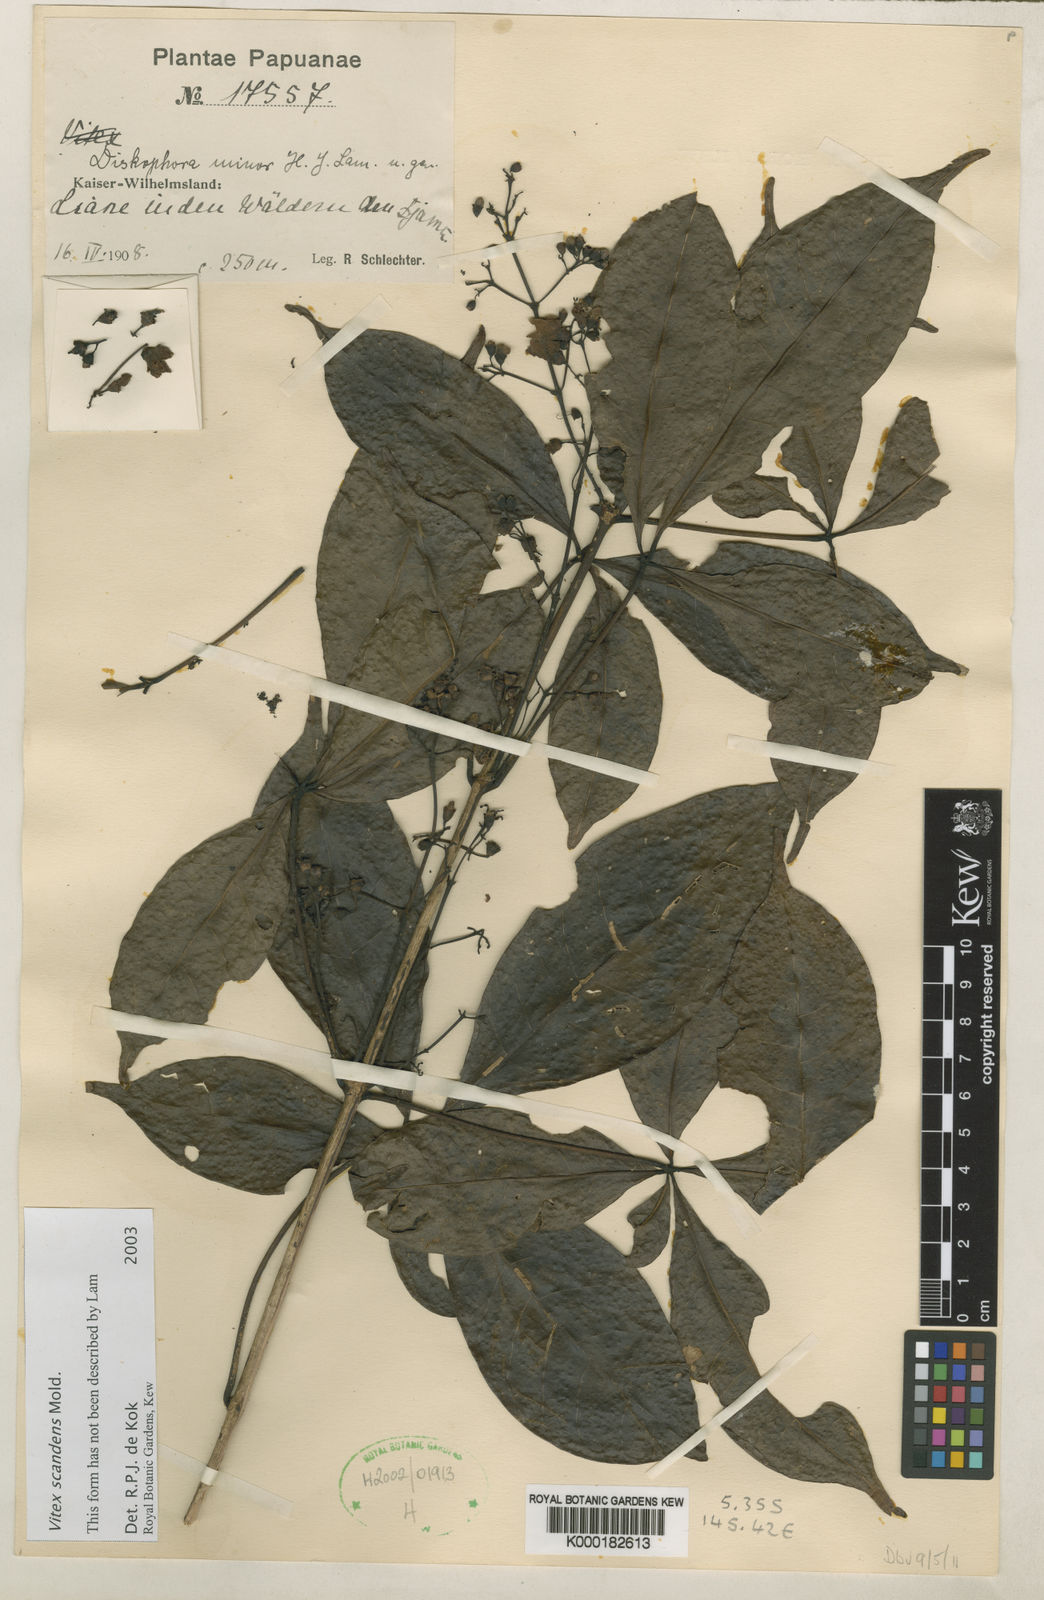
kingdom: Plantae
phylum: Tracheophyta
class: Magnoliopsida
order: Lamiales
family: Lamiaceae
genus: Vitex
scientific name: Vitex quinata
